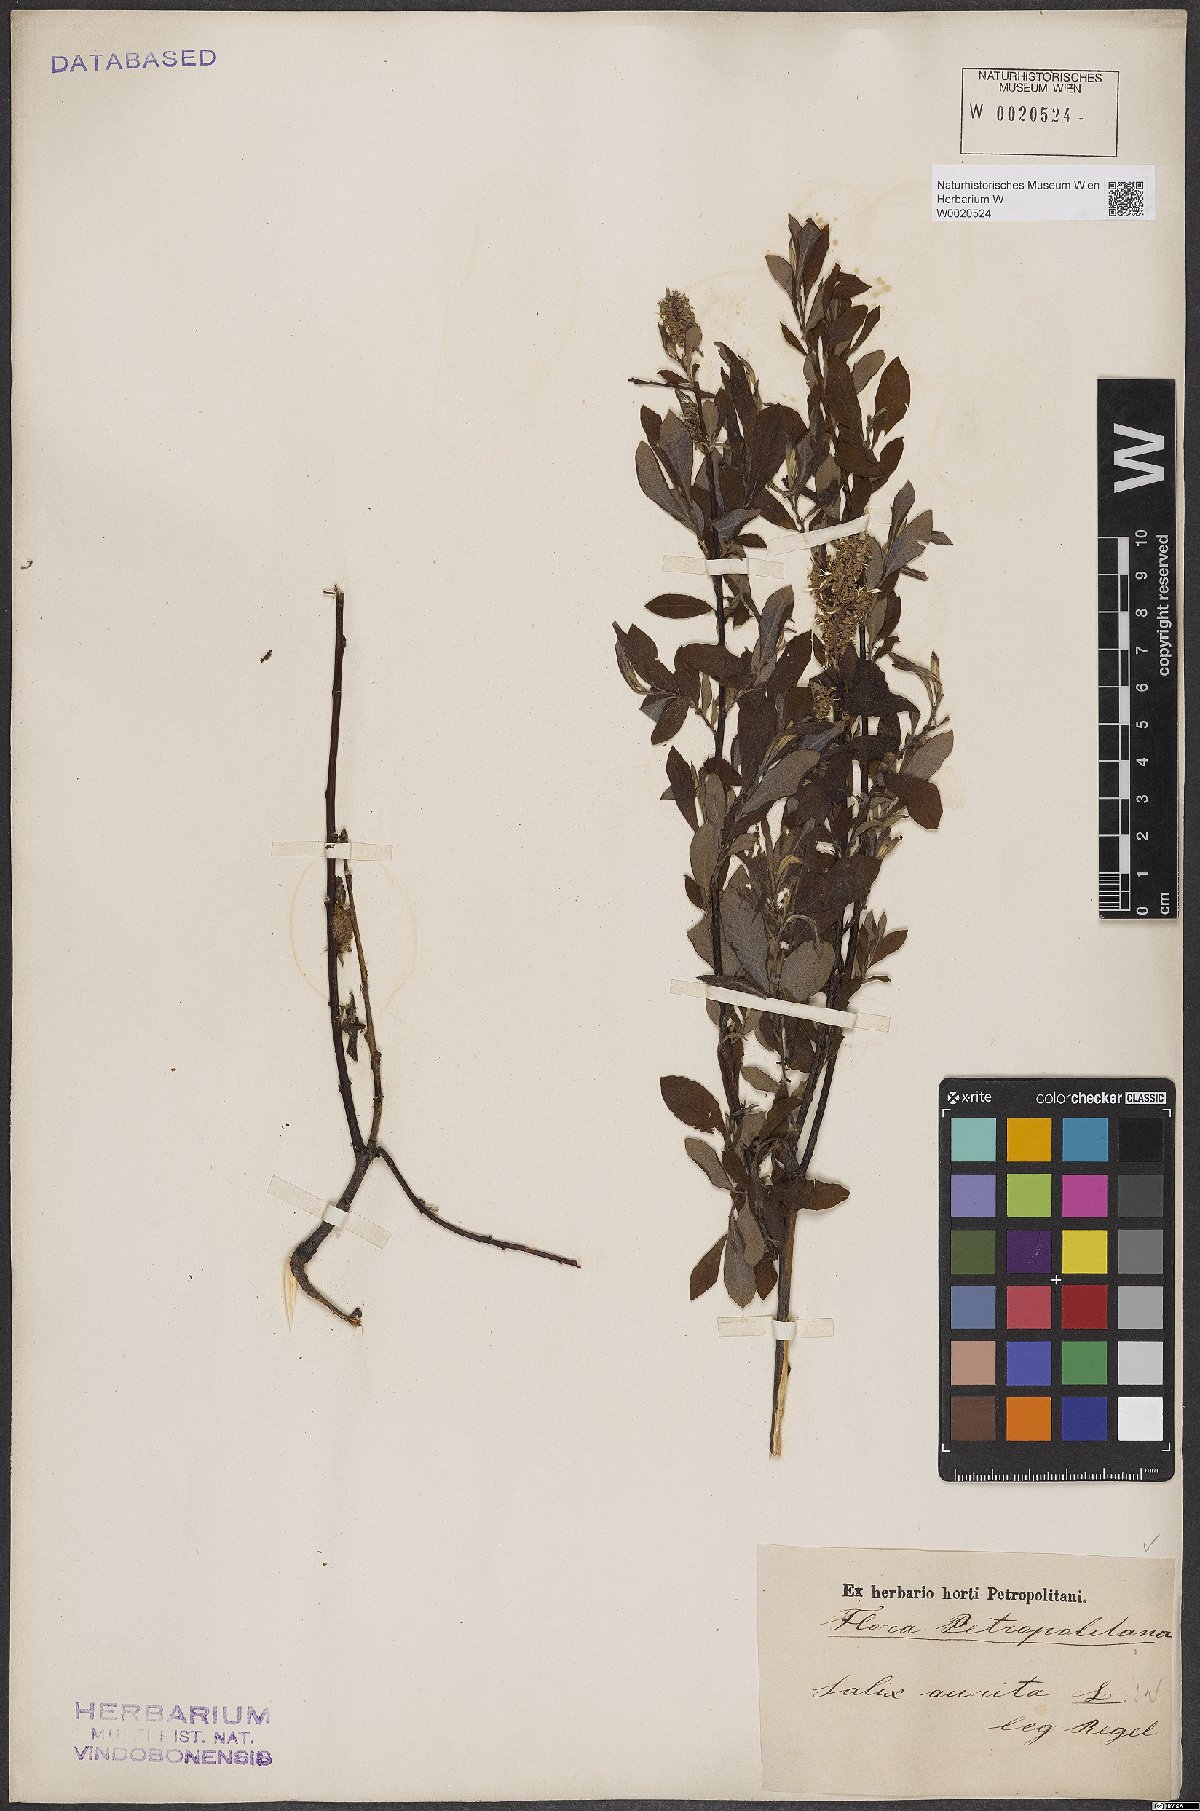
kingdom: Plantae
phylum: Tracheophyta
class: Magnoliopsida
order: Malpighiales
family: Salicaceae
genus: Salix
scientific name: Salix aurita
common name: Eared willow
